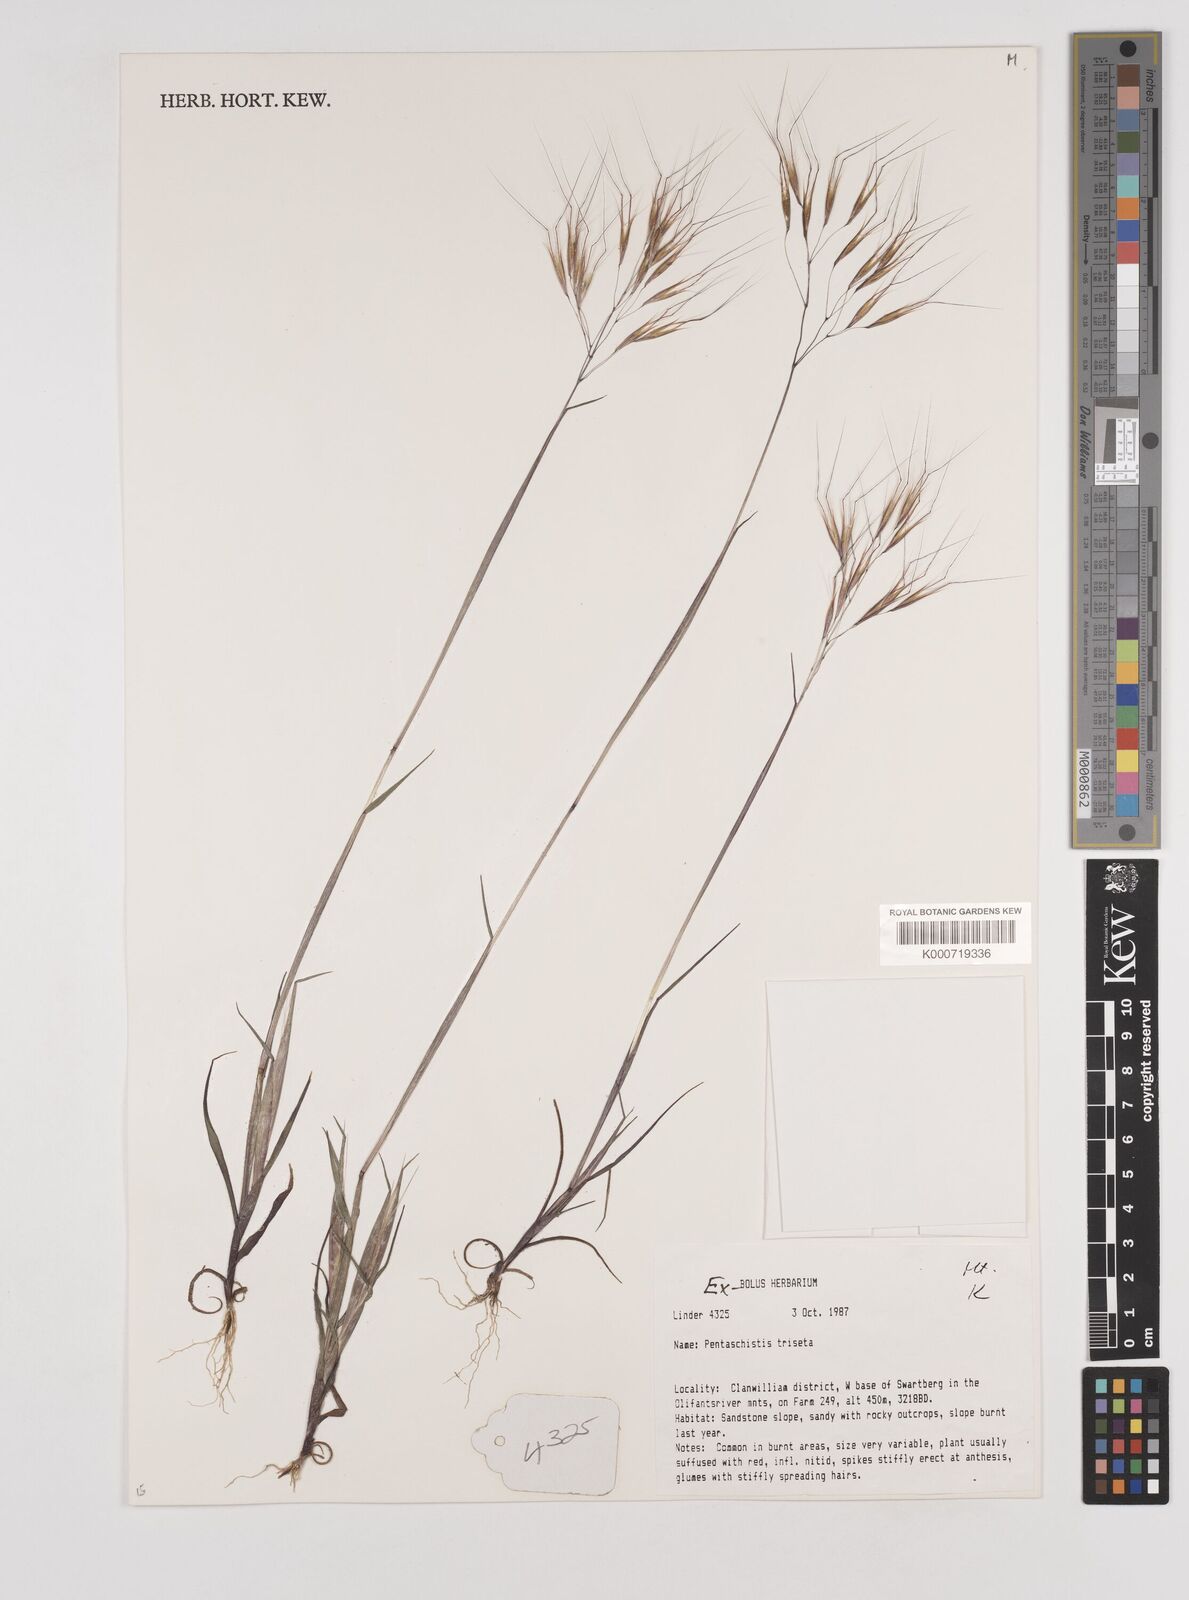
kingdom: Plantae
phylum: Tracheophyta
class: Liliopsida
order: Poales
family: Poaceae
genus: Pentameris
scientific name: Pentameris triseta
